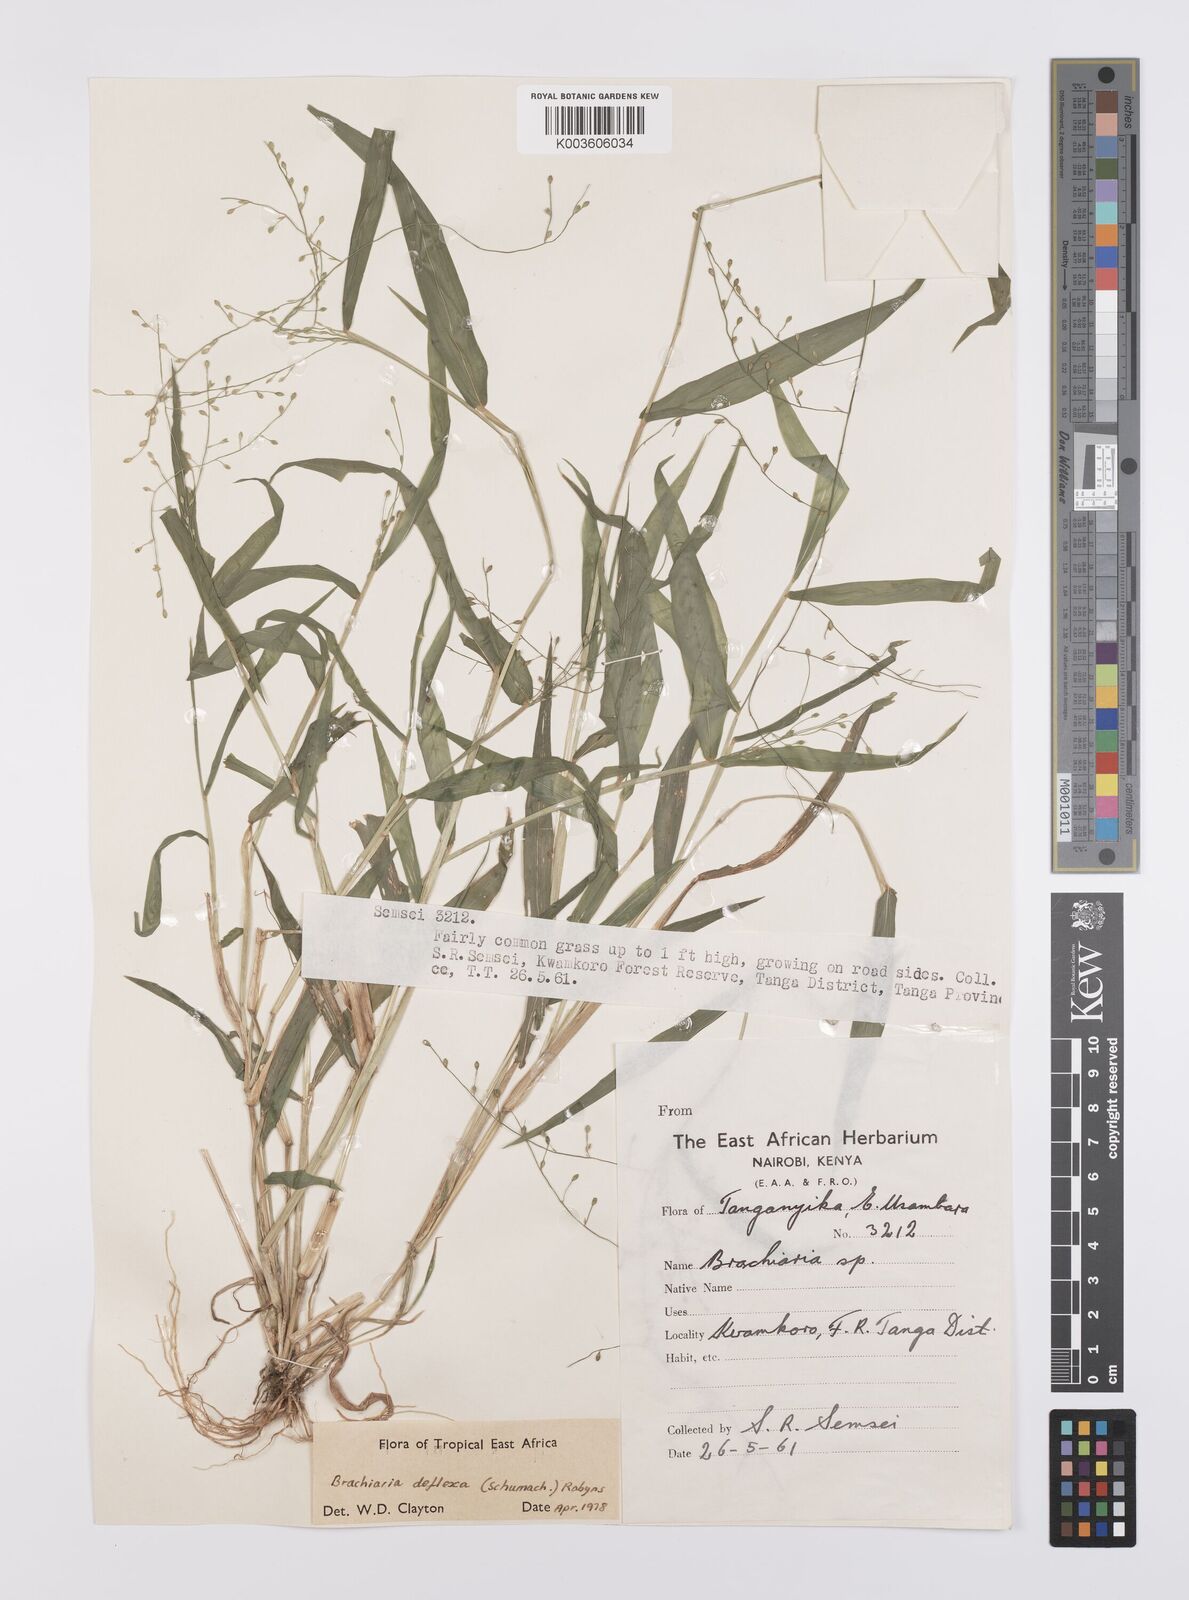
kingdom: Plantae
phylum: Tracheophyta
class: Liliopsida
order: Poales
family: Poaceae
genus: Urochloa
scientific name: Urochloa deflexa
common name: Guinea millet
